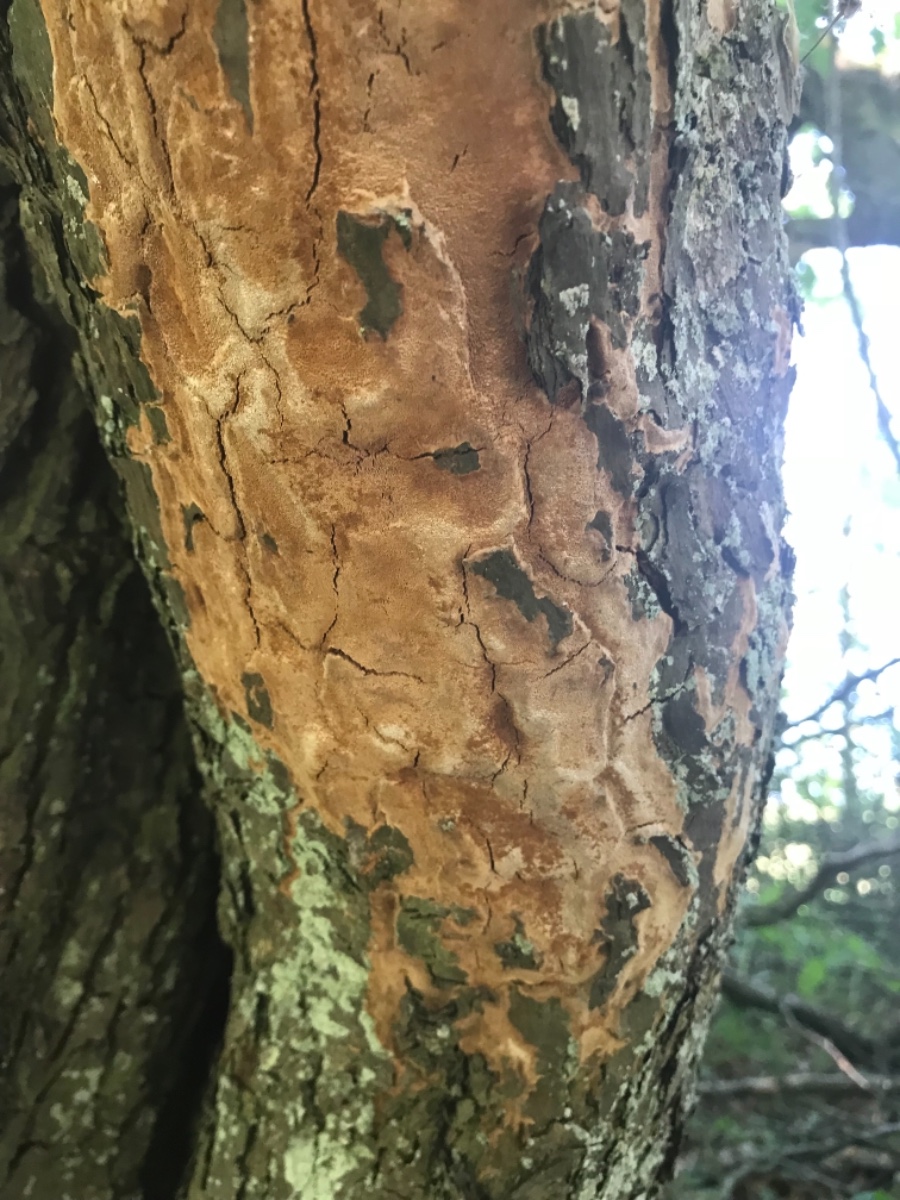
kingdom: Fungi
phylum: Basidiomycota
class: Agaricomycetes
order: Hymenochaetales
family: Hymenochaetaceae
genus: Fuscoporia
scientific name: Fuscoporia ferrea
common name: skorpe-ildporesvamp
